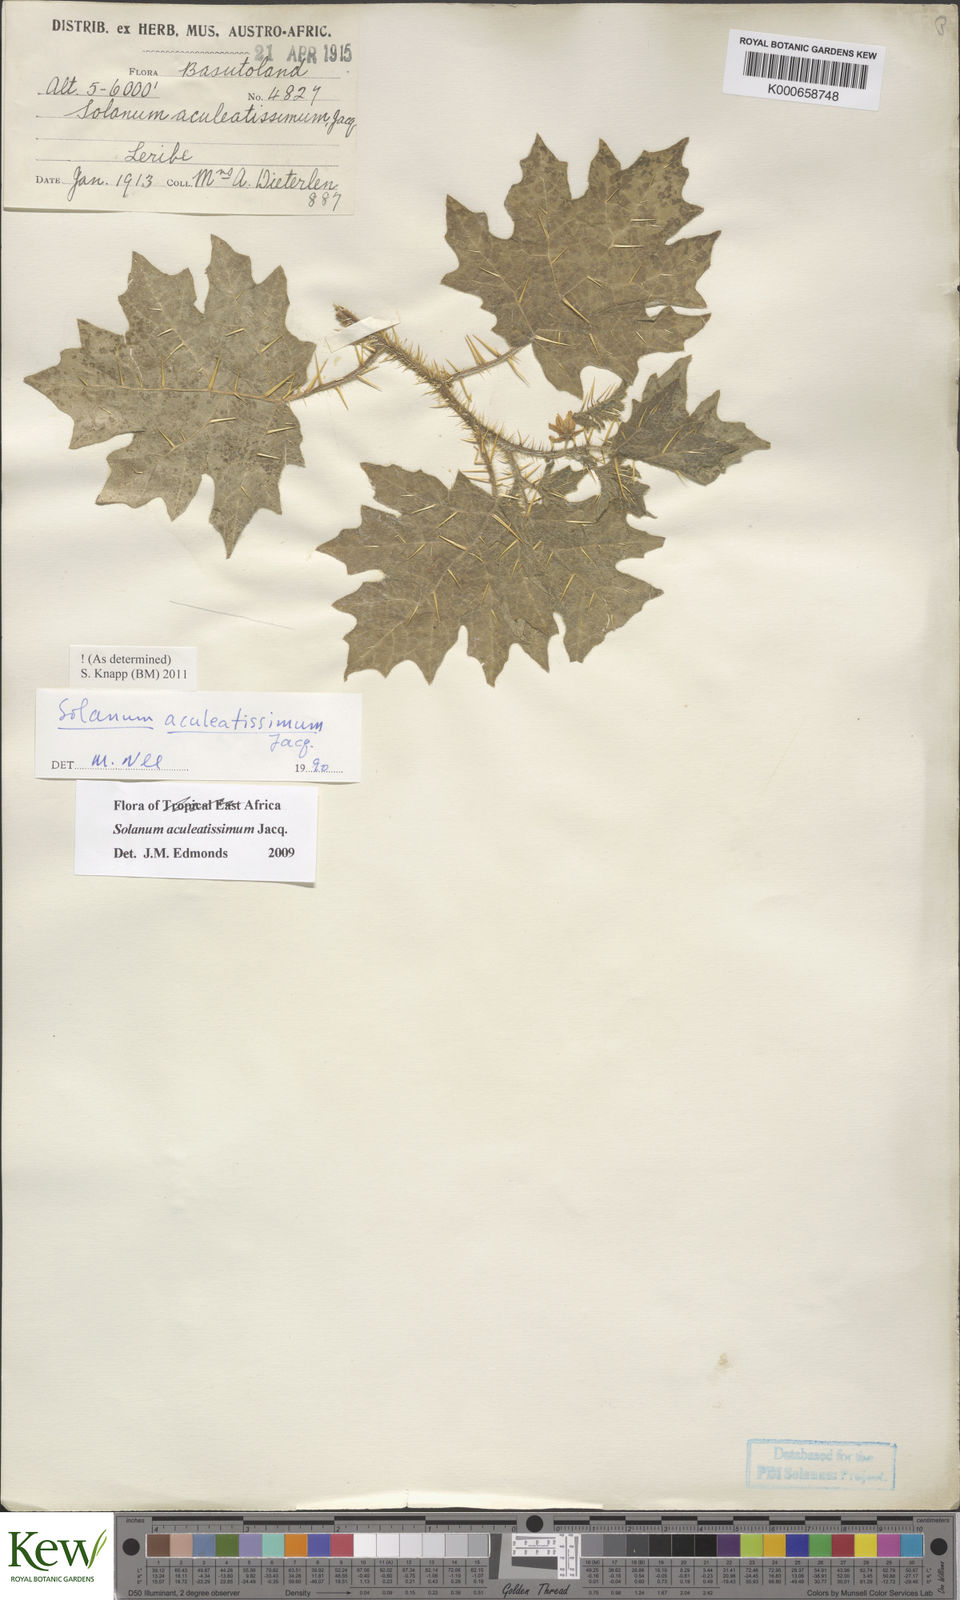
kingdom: Plantae
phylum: Tracheophyta
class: Magnoliopsida
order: Solanales
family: Solanaceae
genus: Solanum
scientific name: Solanum aculeatissimum
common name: Dutch eggplant
